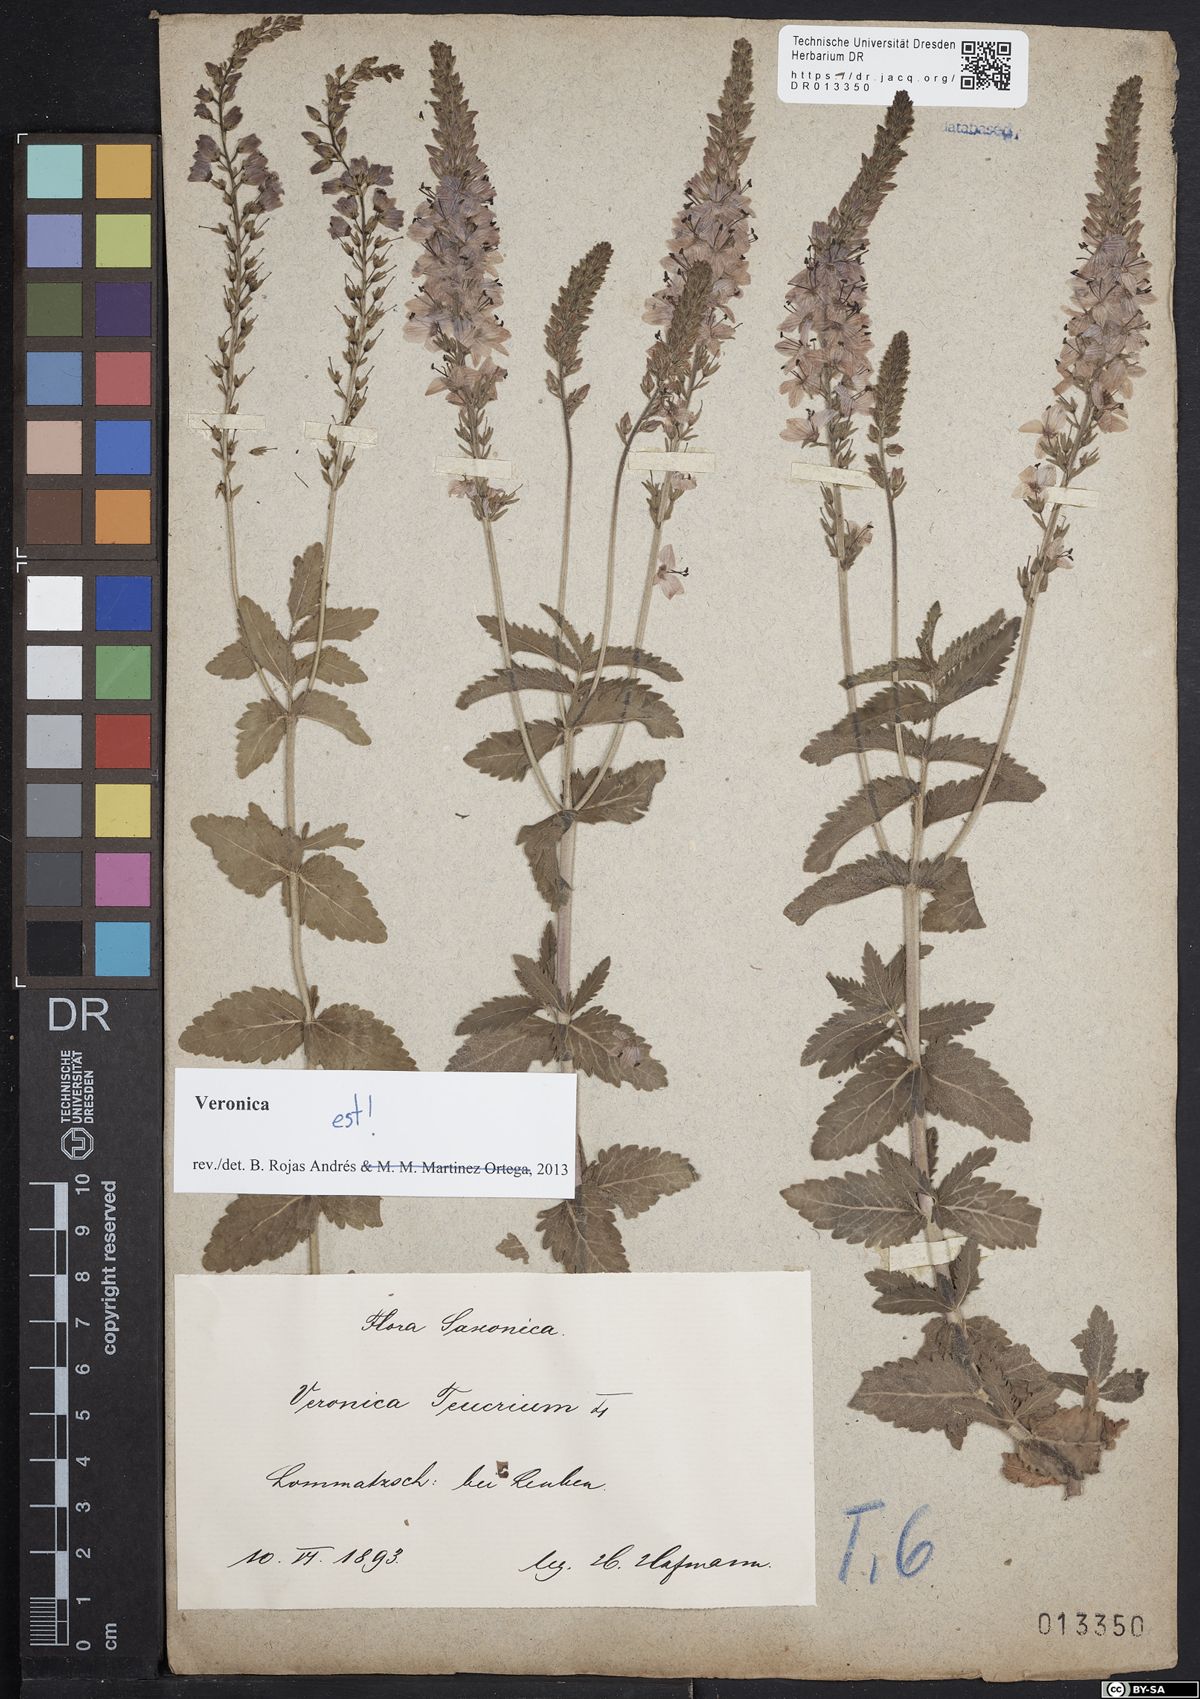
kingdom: Plantae
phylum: Tracheophyta
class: Magnoliopsida
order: Lamiales
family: Plantaginaceae
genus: Veronica
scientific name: Veronica teucrium
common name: Large speedwell
